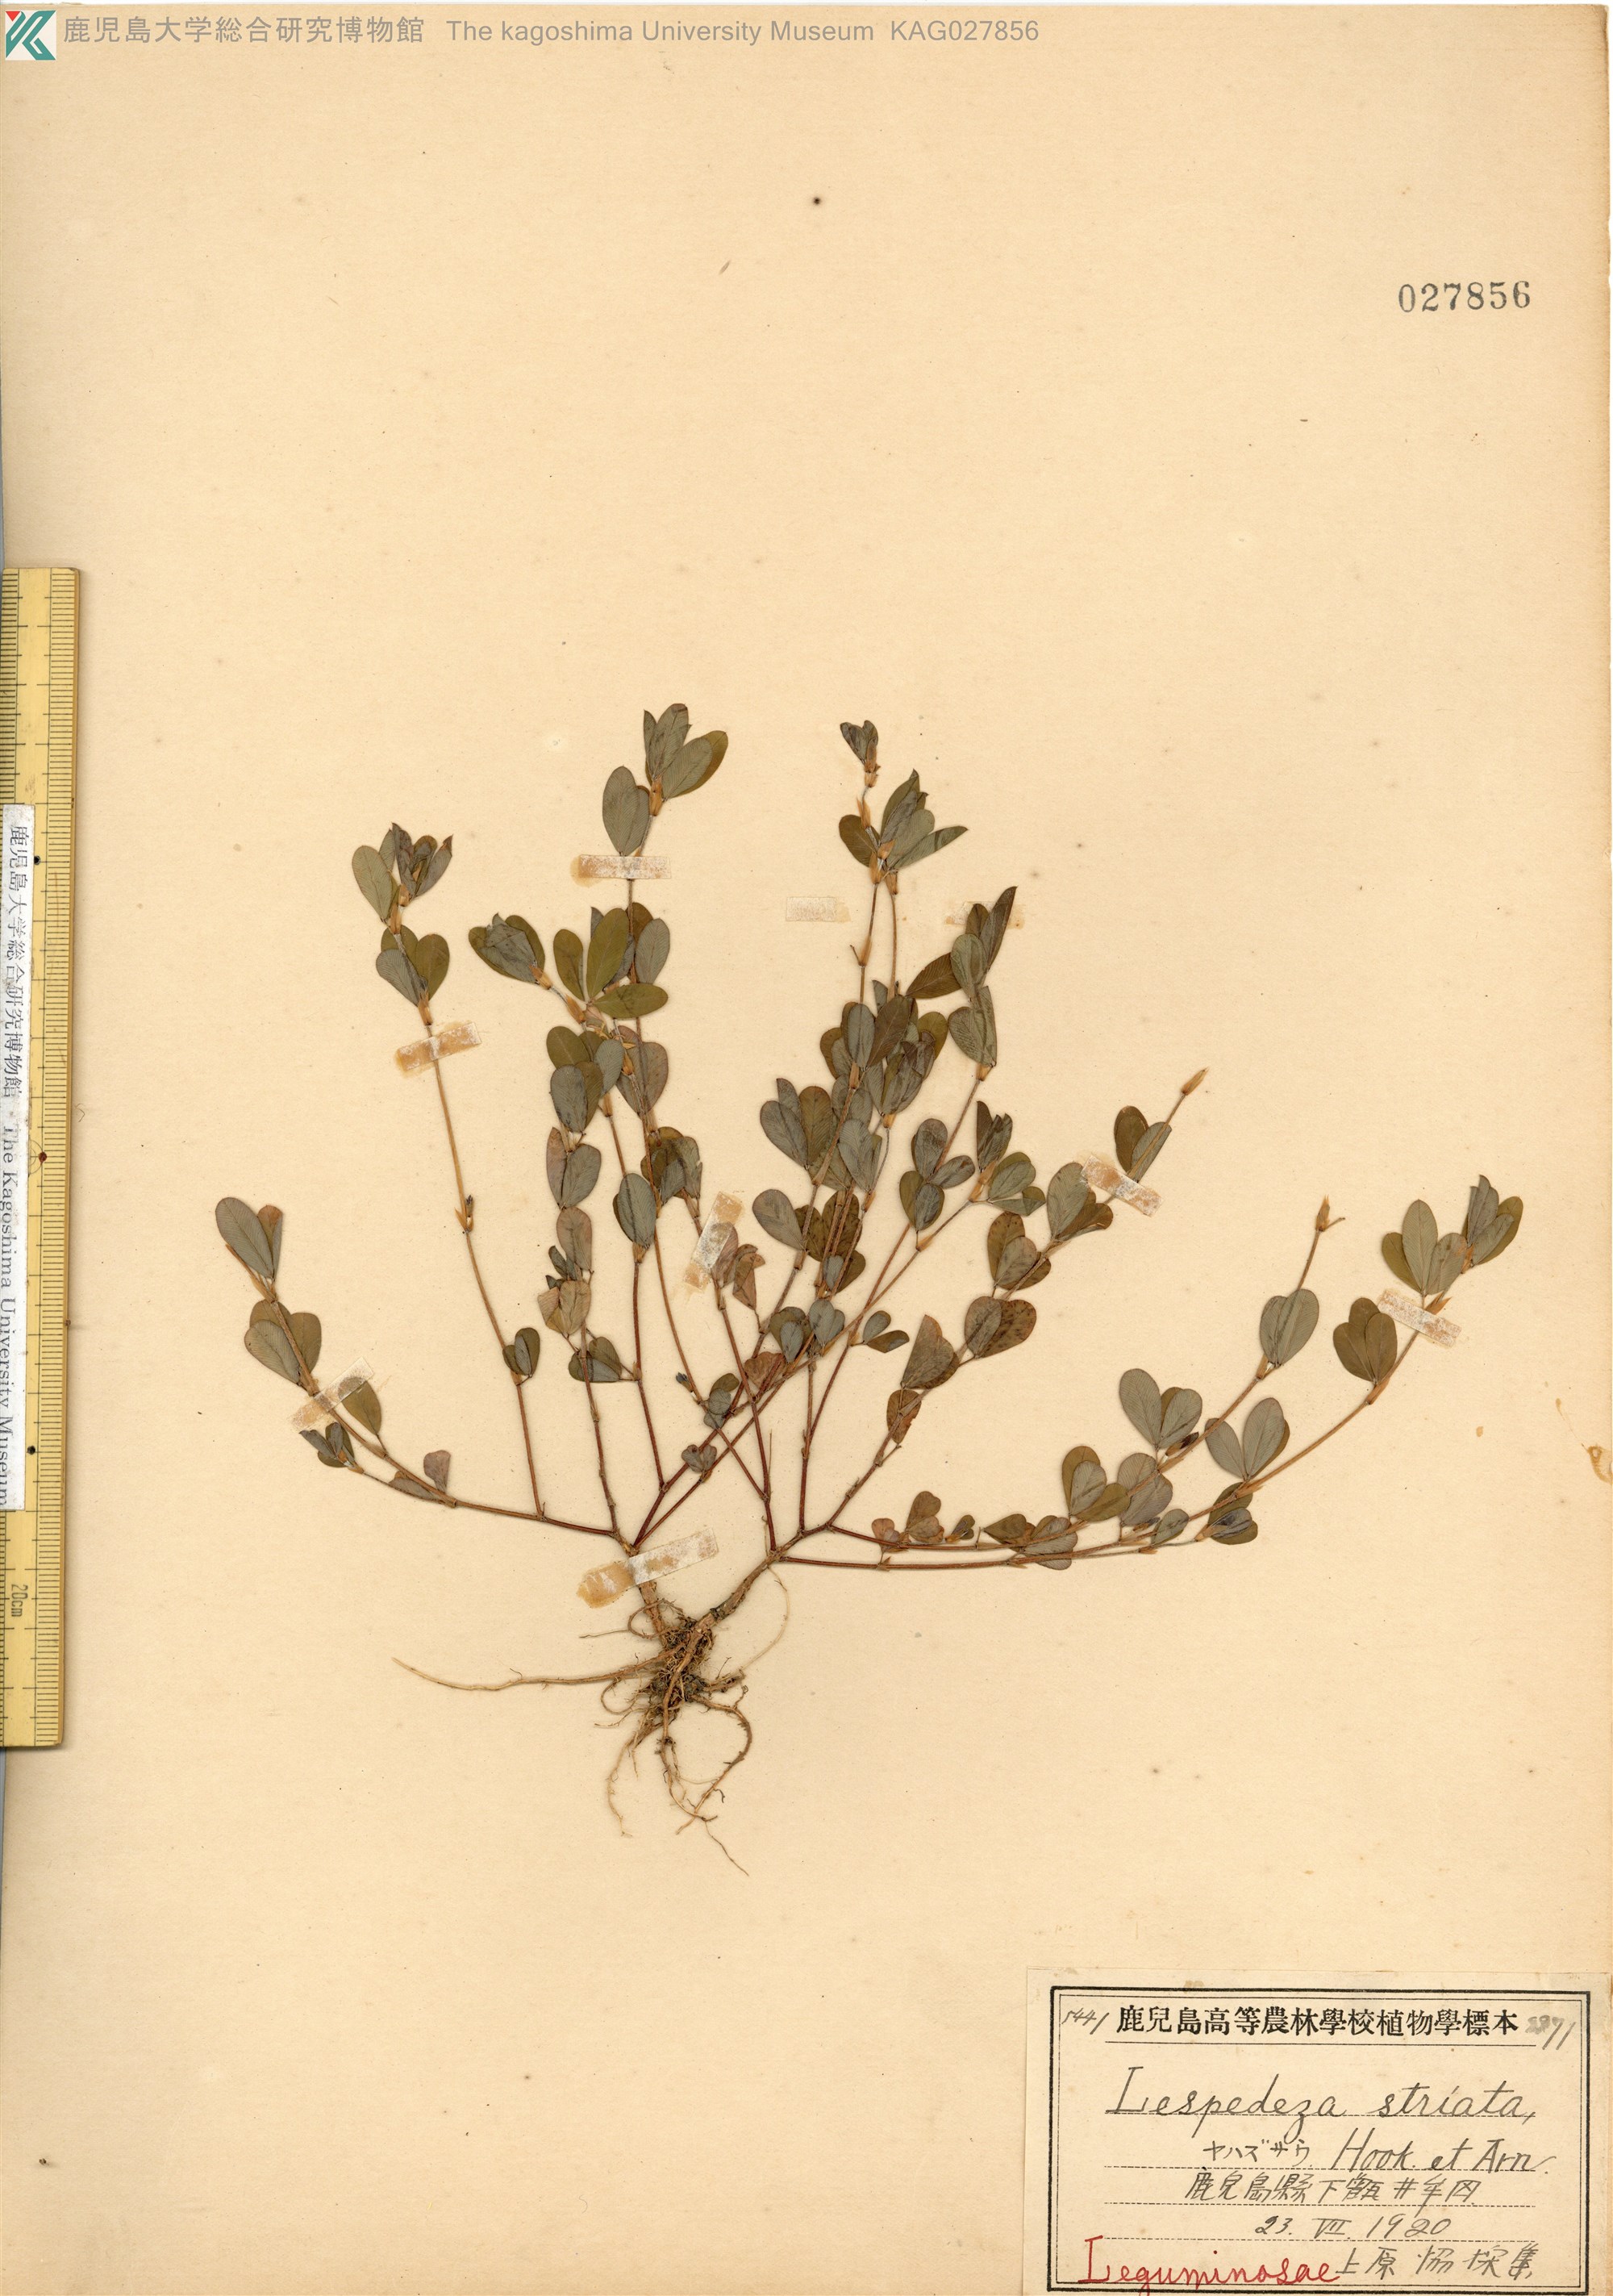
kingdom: Plantae
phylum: Tracheophyta
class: Magnoliopsida
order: Fabales
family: Fabaceae
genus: Kummerowia
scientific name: Kummerowia striata
